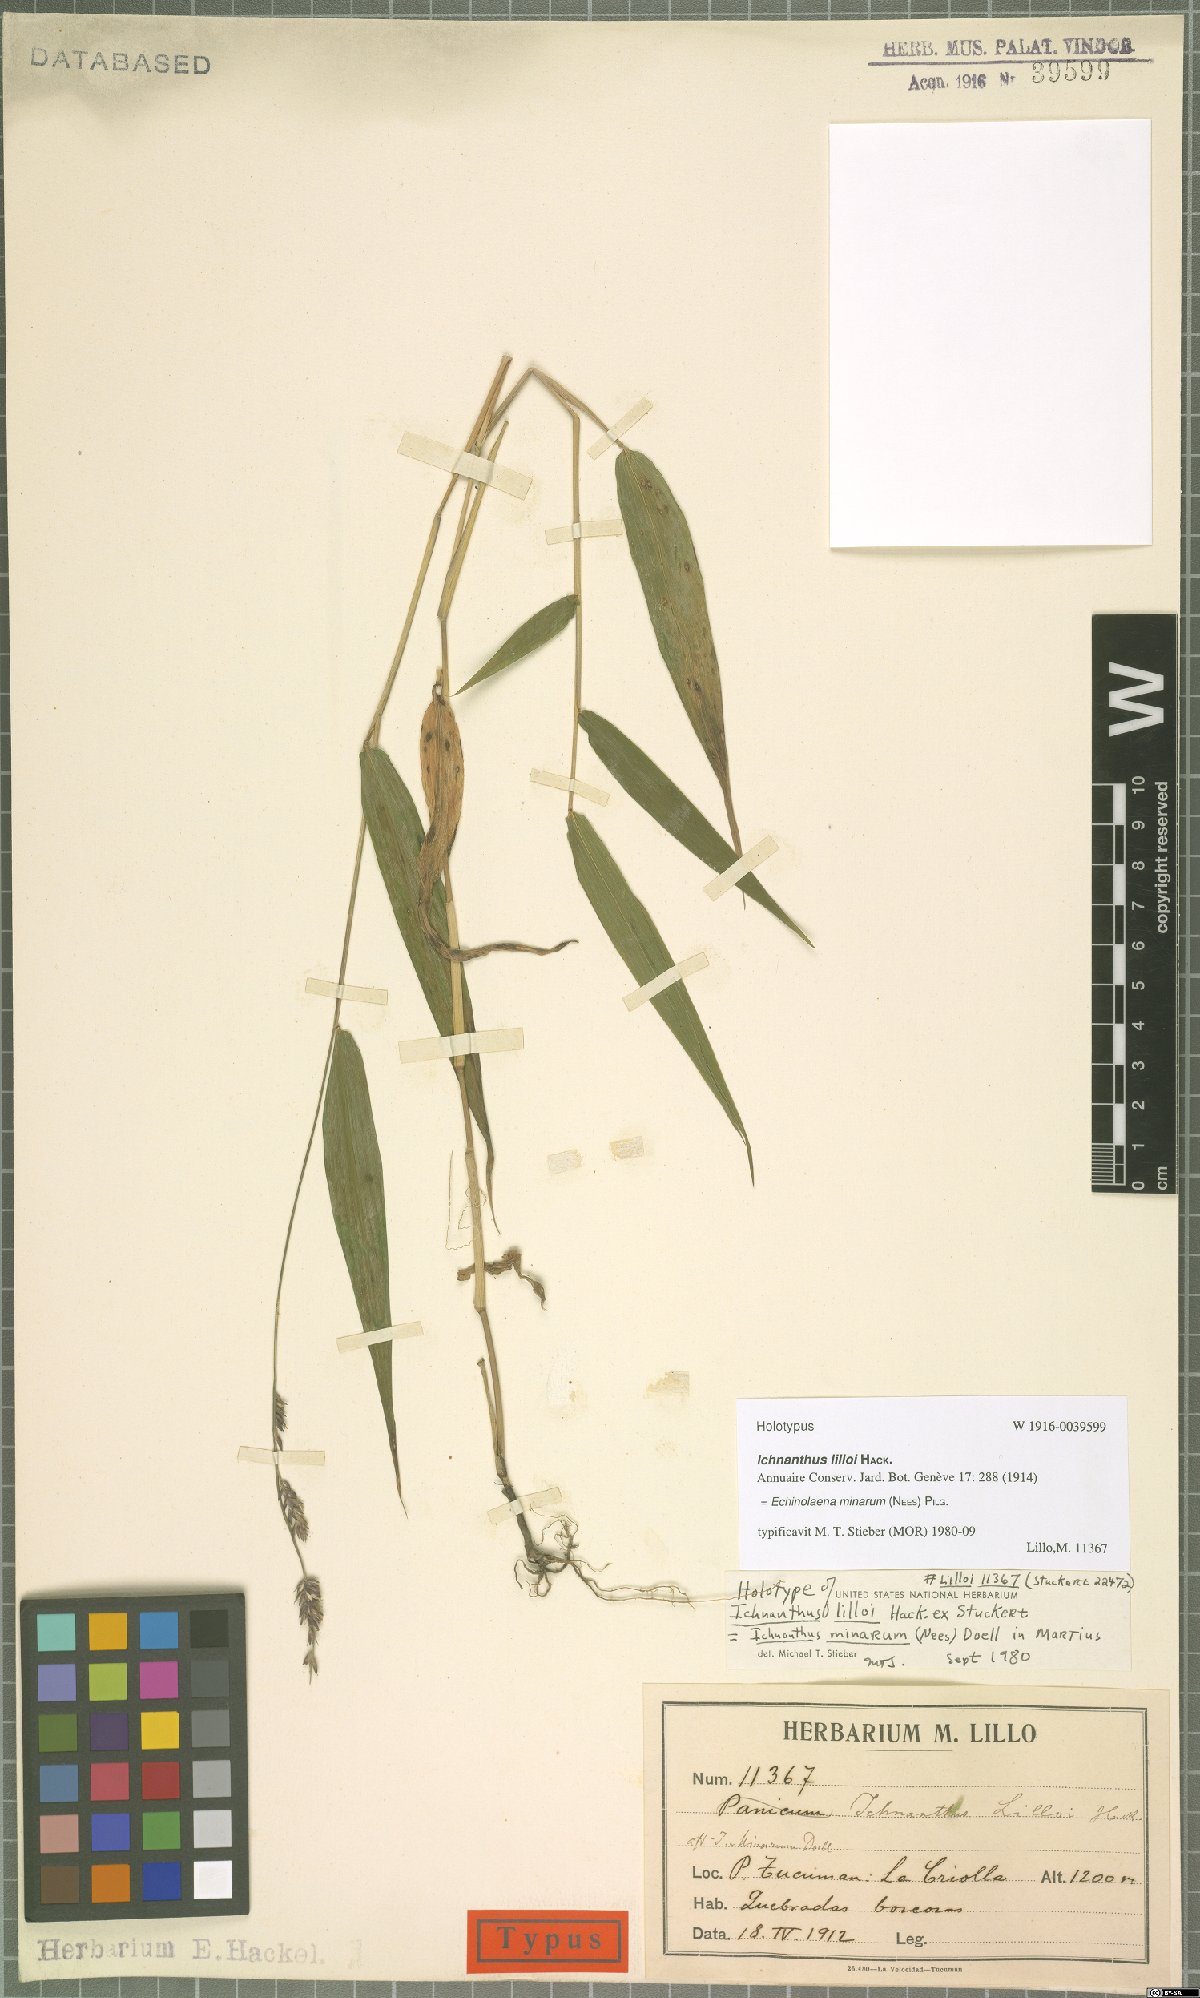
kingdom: Plantae
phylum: Tracheophyta
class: Liliopsida
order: Poales
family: Poaceae
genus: Oedochloa
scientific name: Oedochloa minarum
